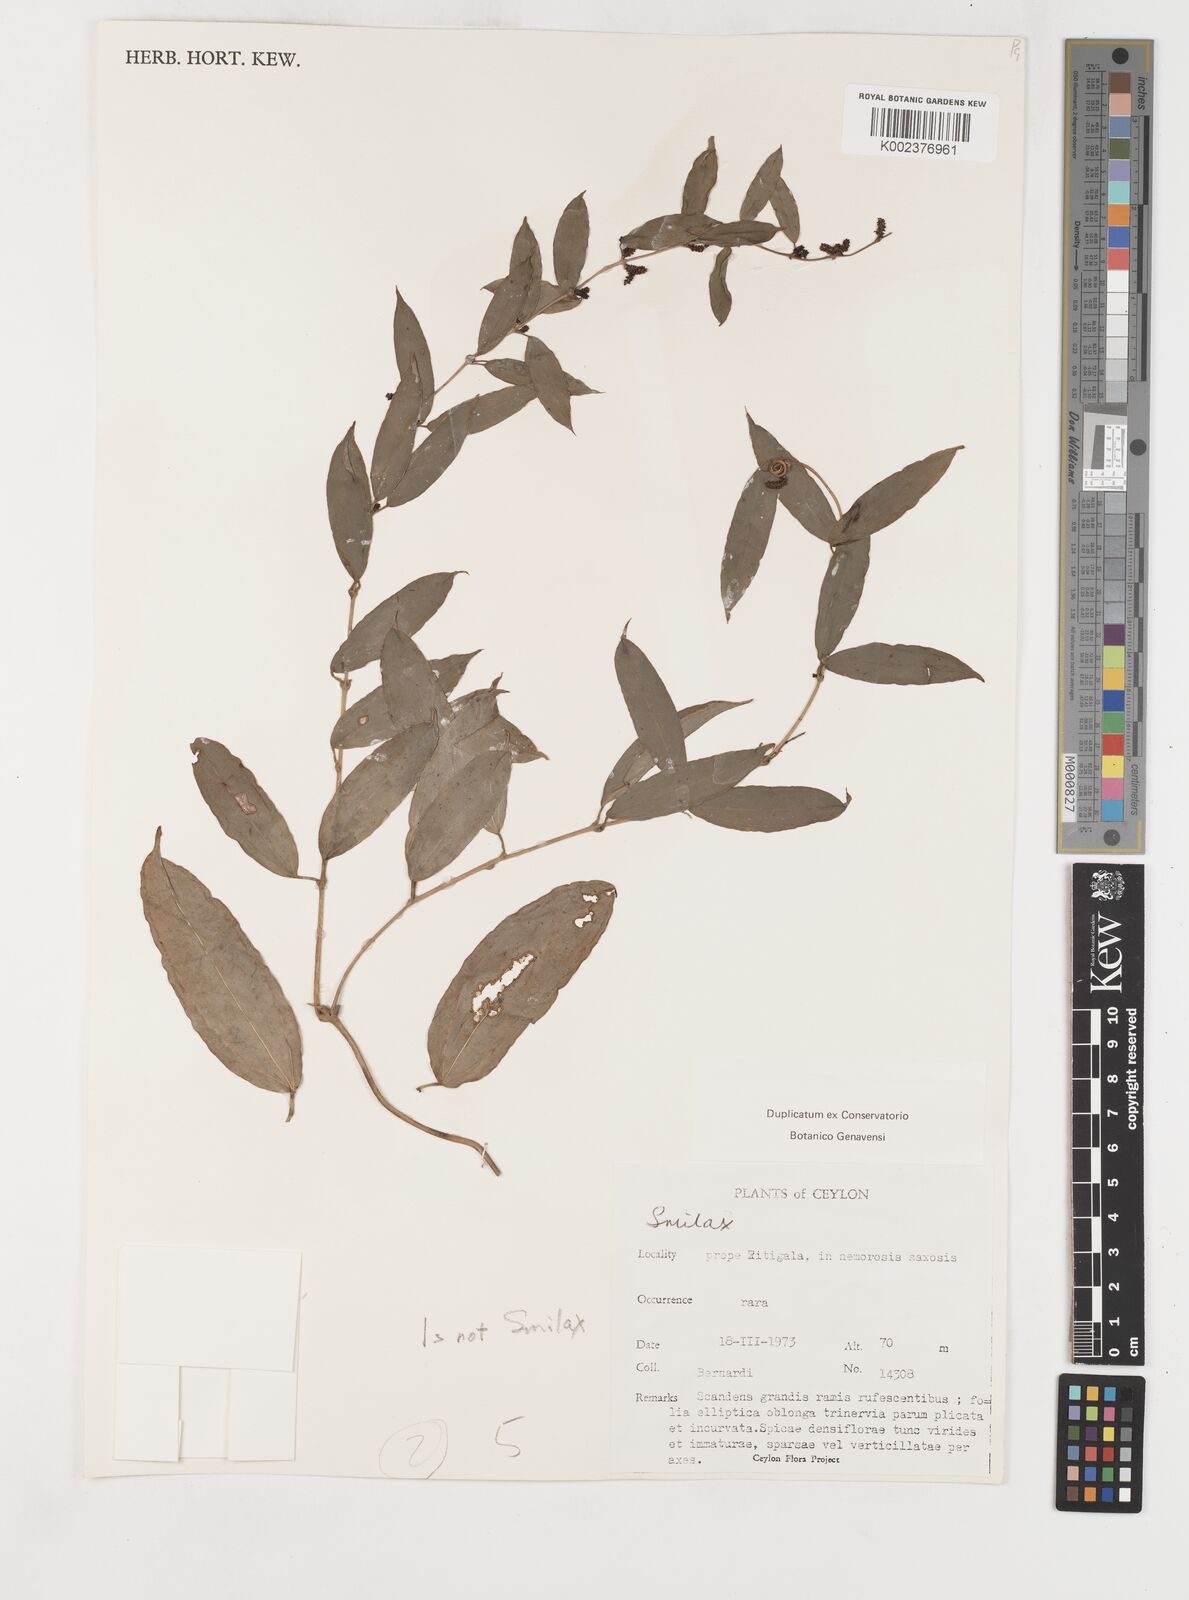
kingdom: Plantae
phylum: Tracheophyta
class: Liliopsida
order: Liliales
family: Smilacaceae
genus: Smilax
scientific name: Smilax
